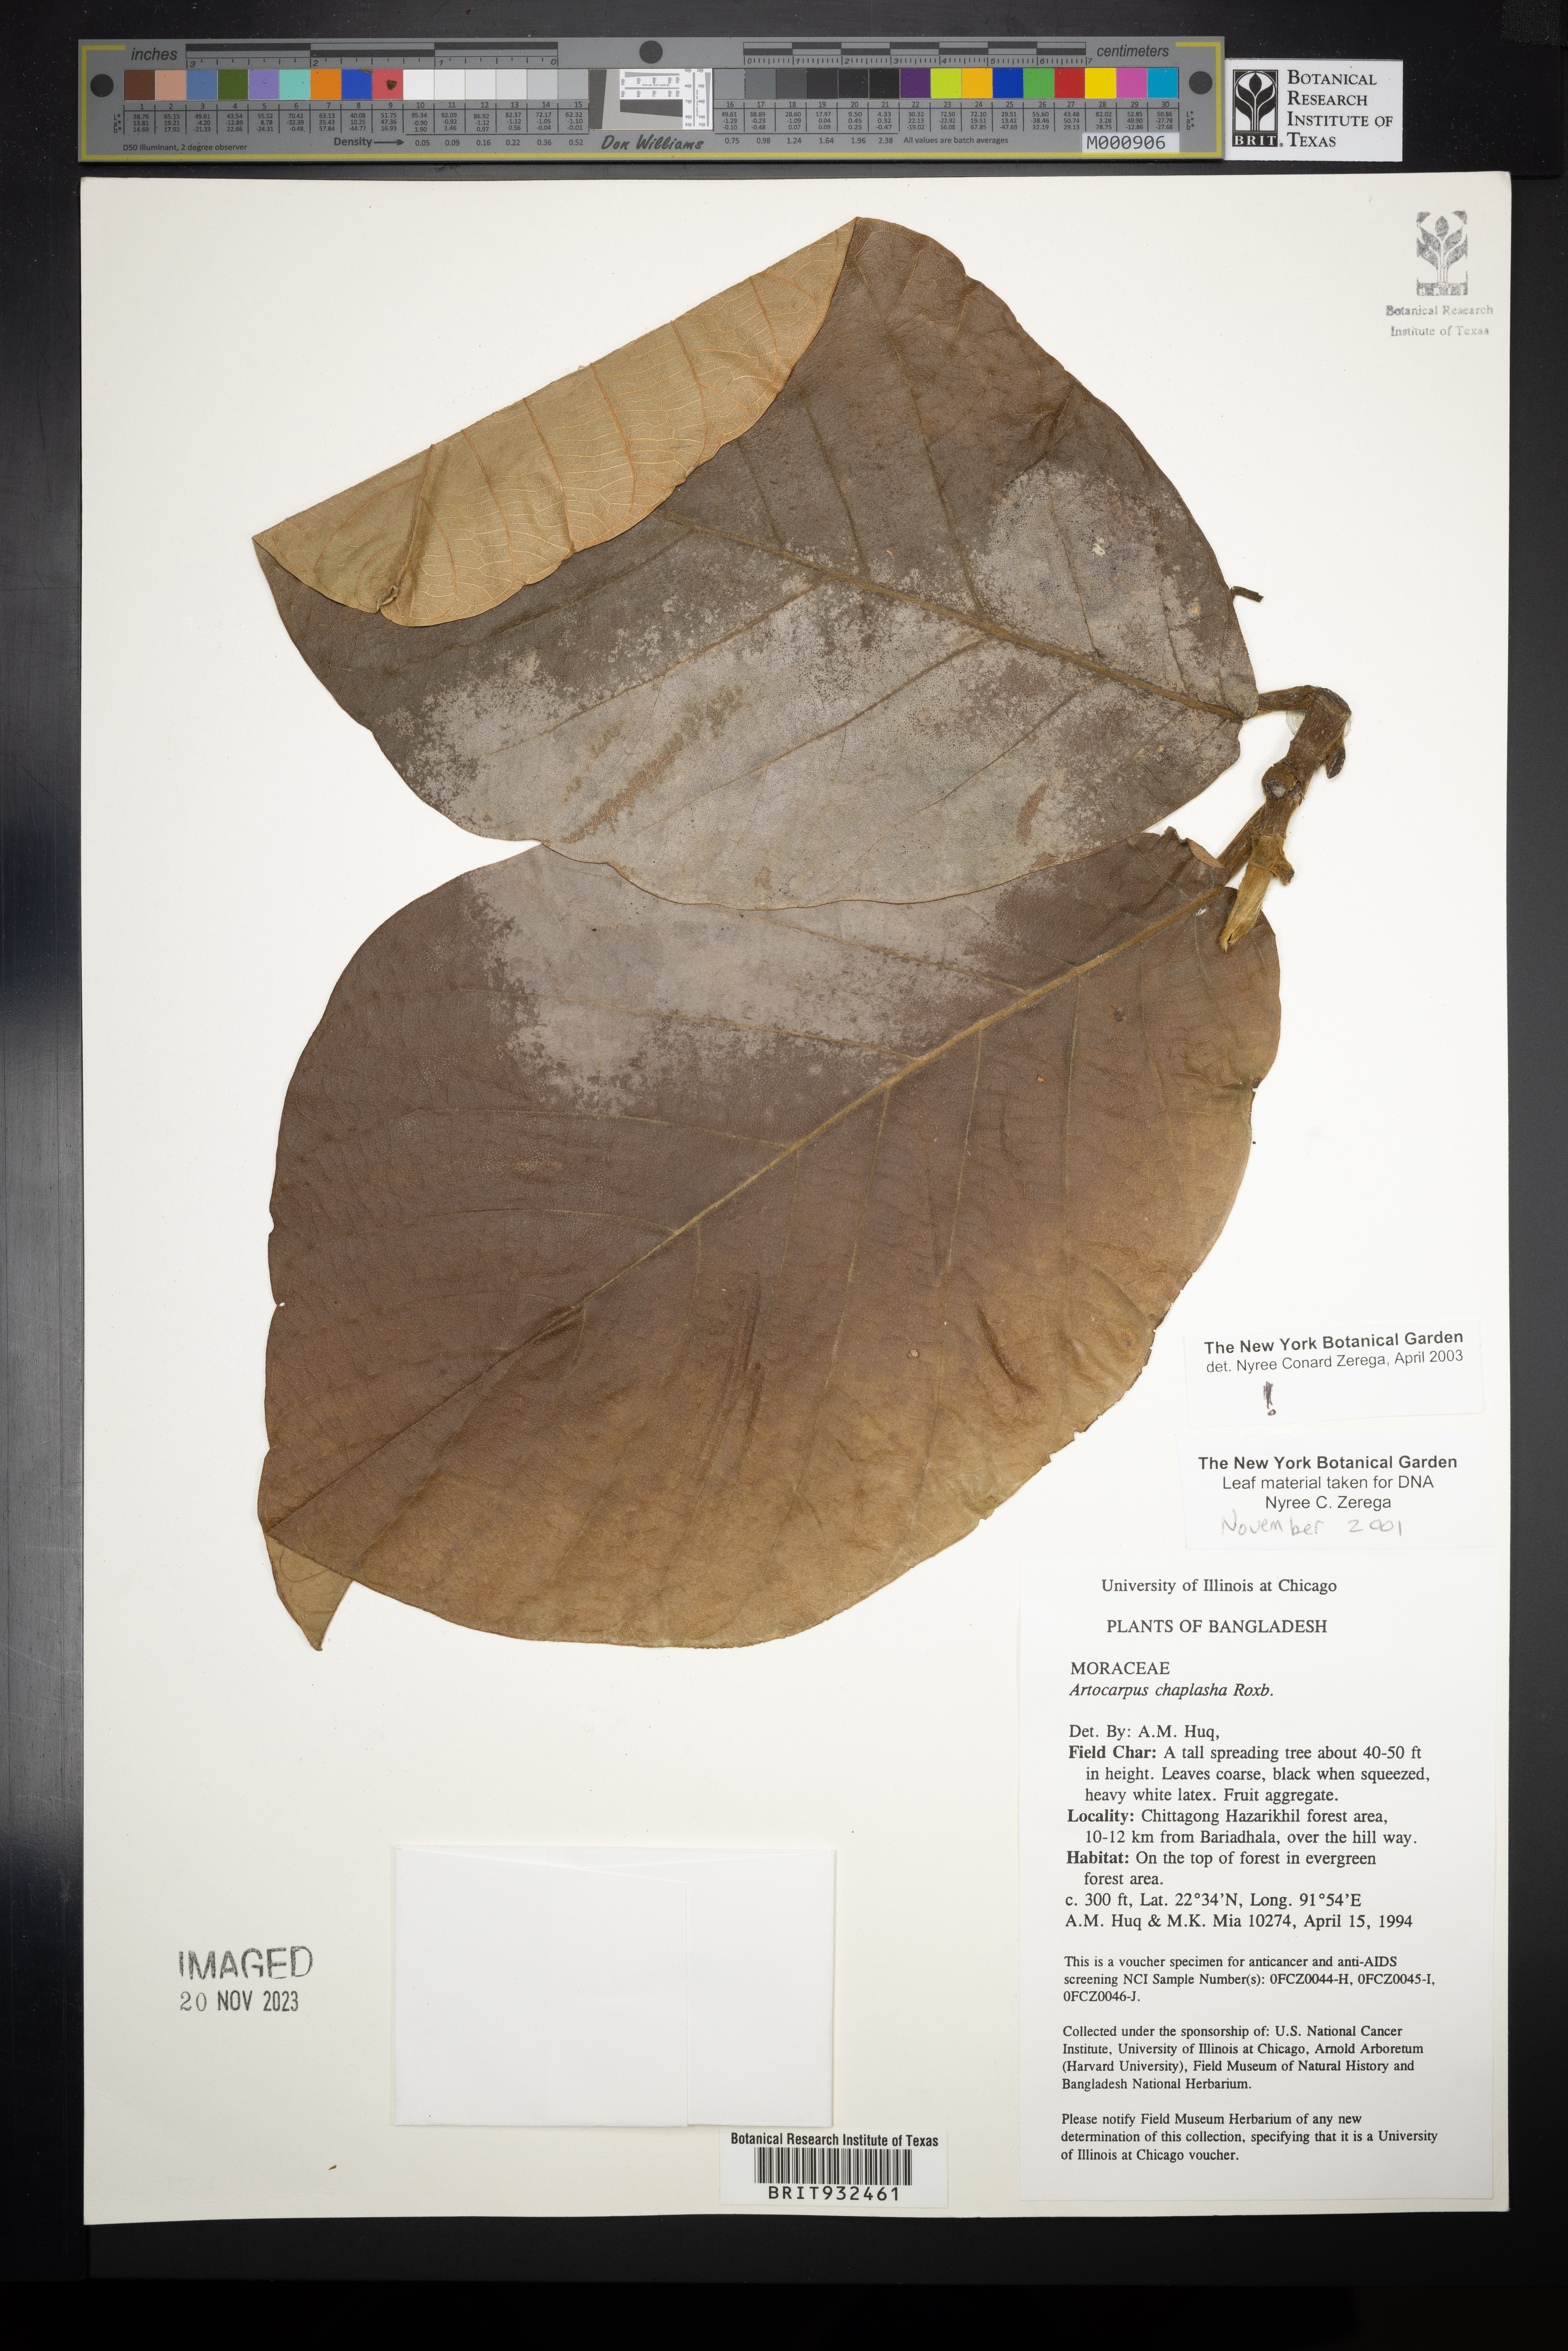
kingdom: Plantae
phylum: Tracheophyta
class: Magnoliopsida
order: Rosales
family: Moraceae
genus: Artocarpus
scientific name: Artocarpus
